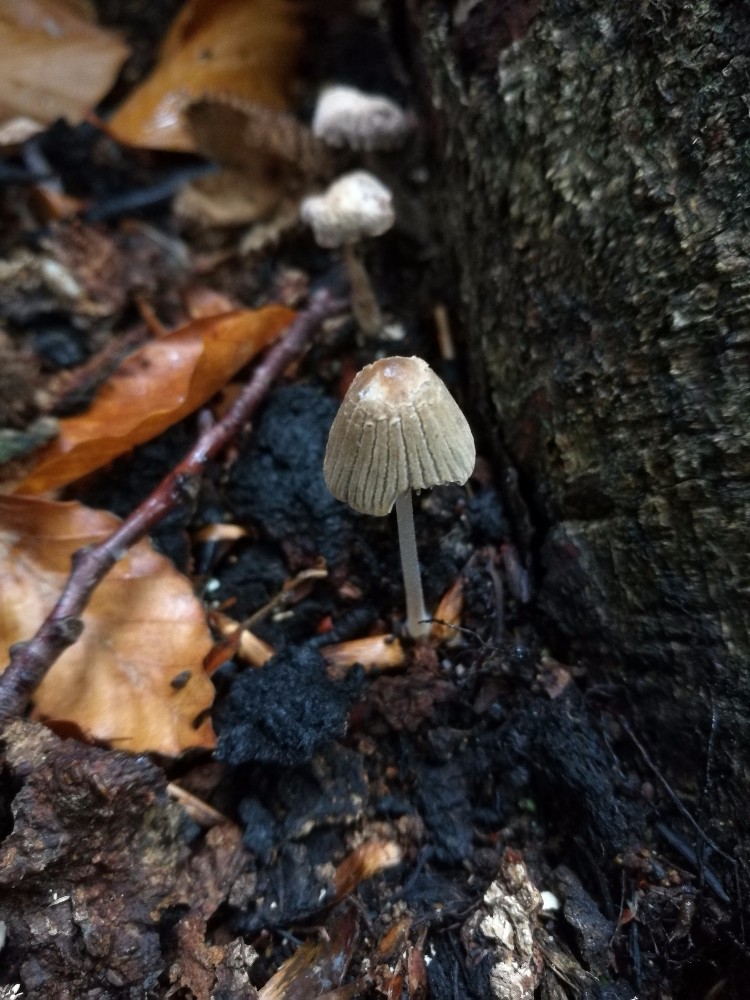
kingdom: Fungi
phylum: Basidiomycota
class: Agaricomycetes
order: Agaricales
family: Psathyrellaceae
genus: Tulosesus
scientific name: Tulosesus angulatus
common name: kul-blækhat
